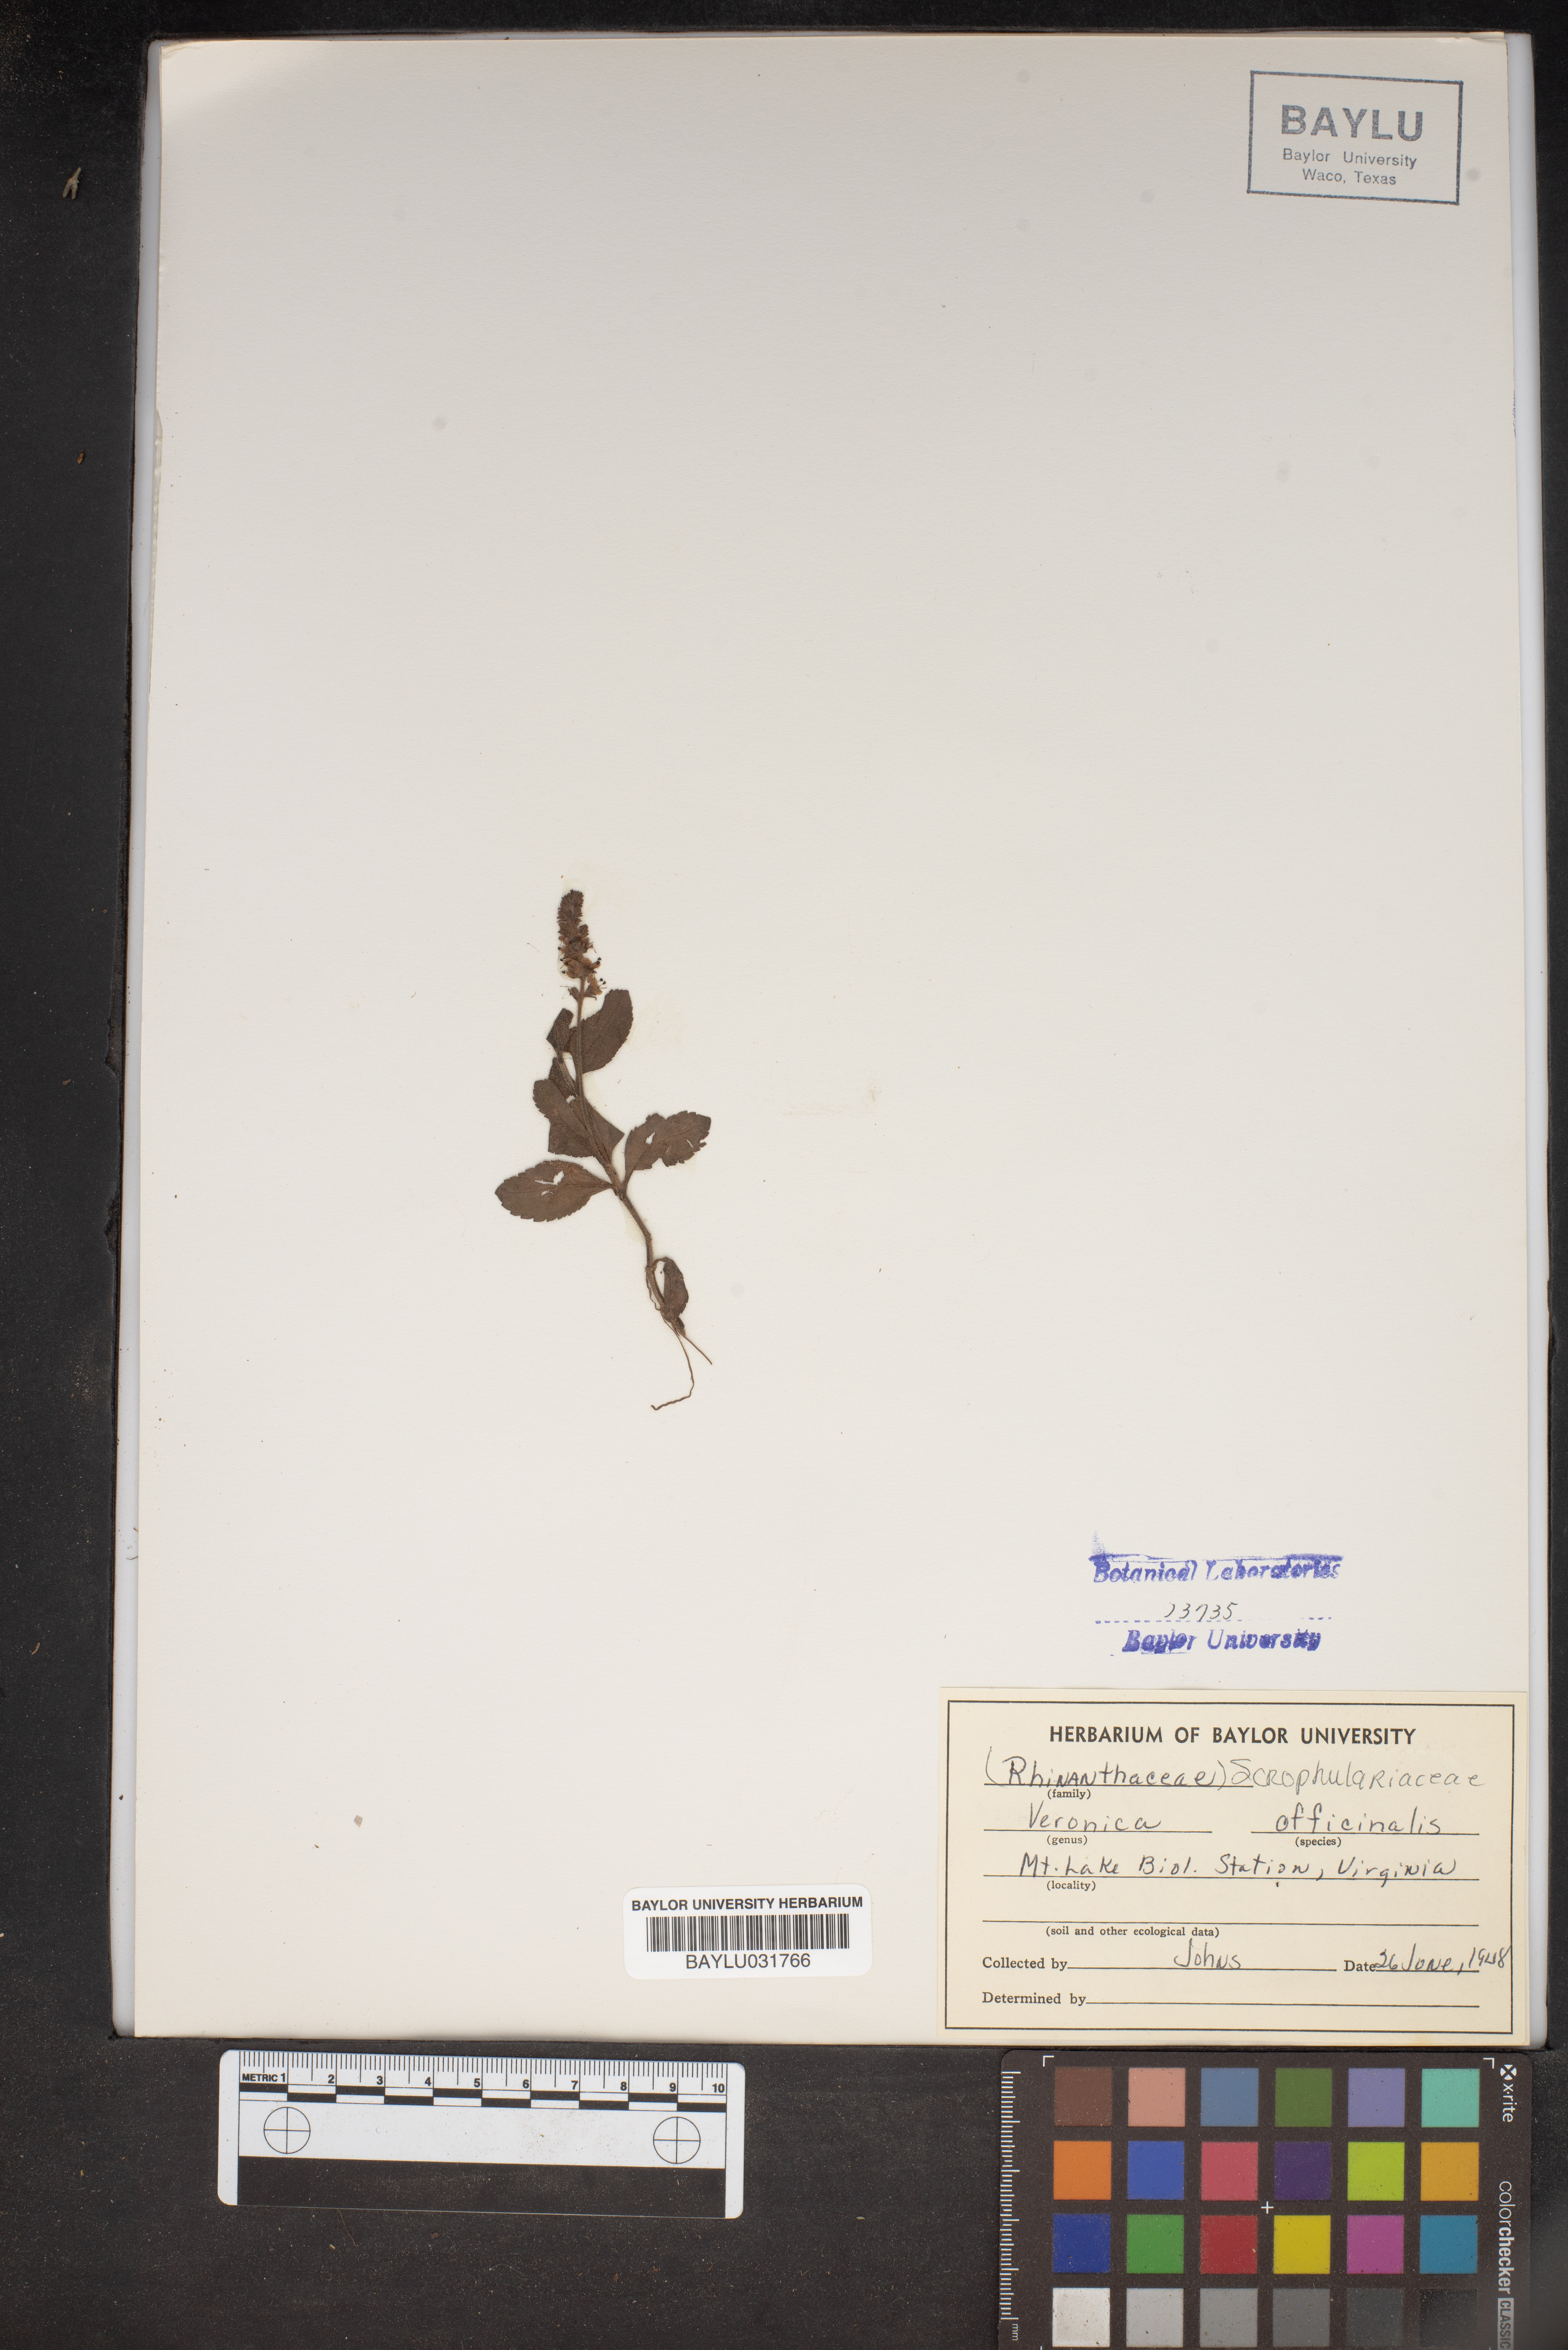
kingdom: Plantae
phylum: Tracheophyta
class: Magnoliopsida
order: Lamiales
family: Plantaginaceae
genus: Veronica
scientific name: Veronica officinalis
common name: Common speedwell
